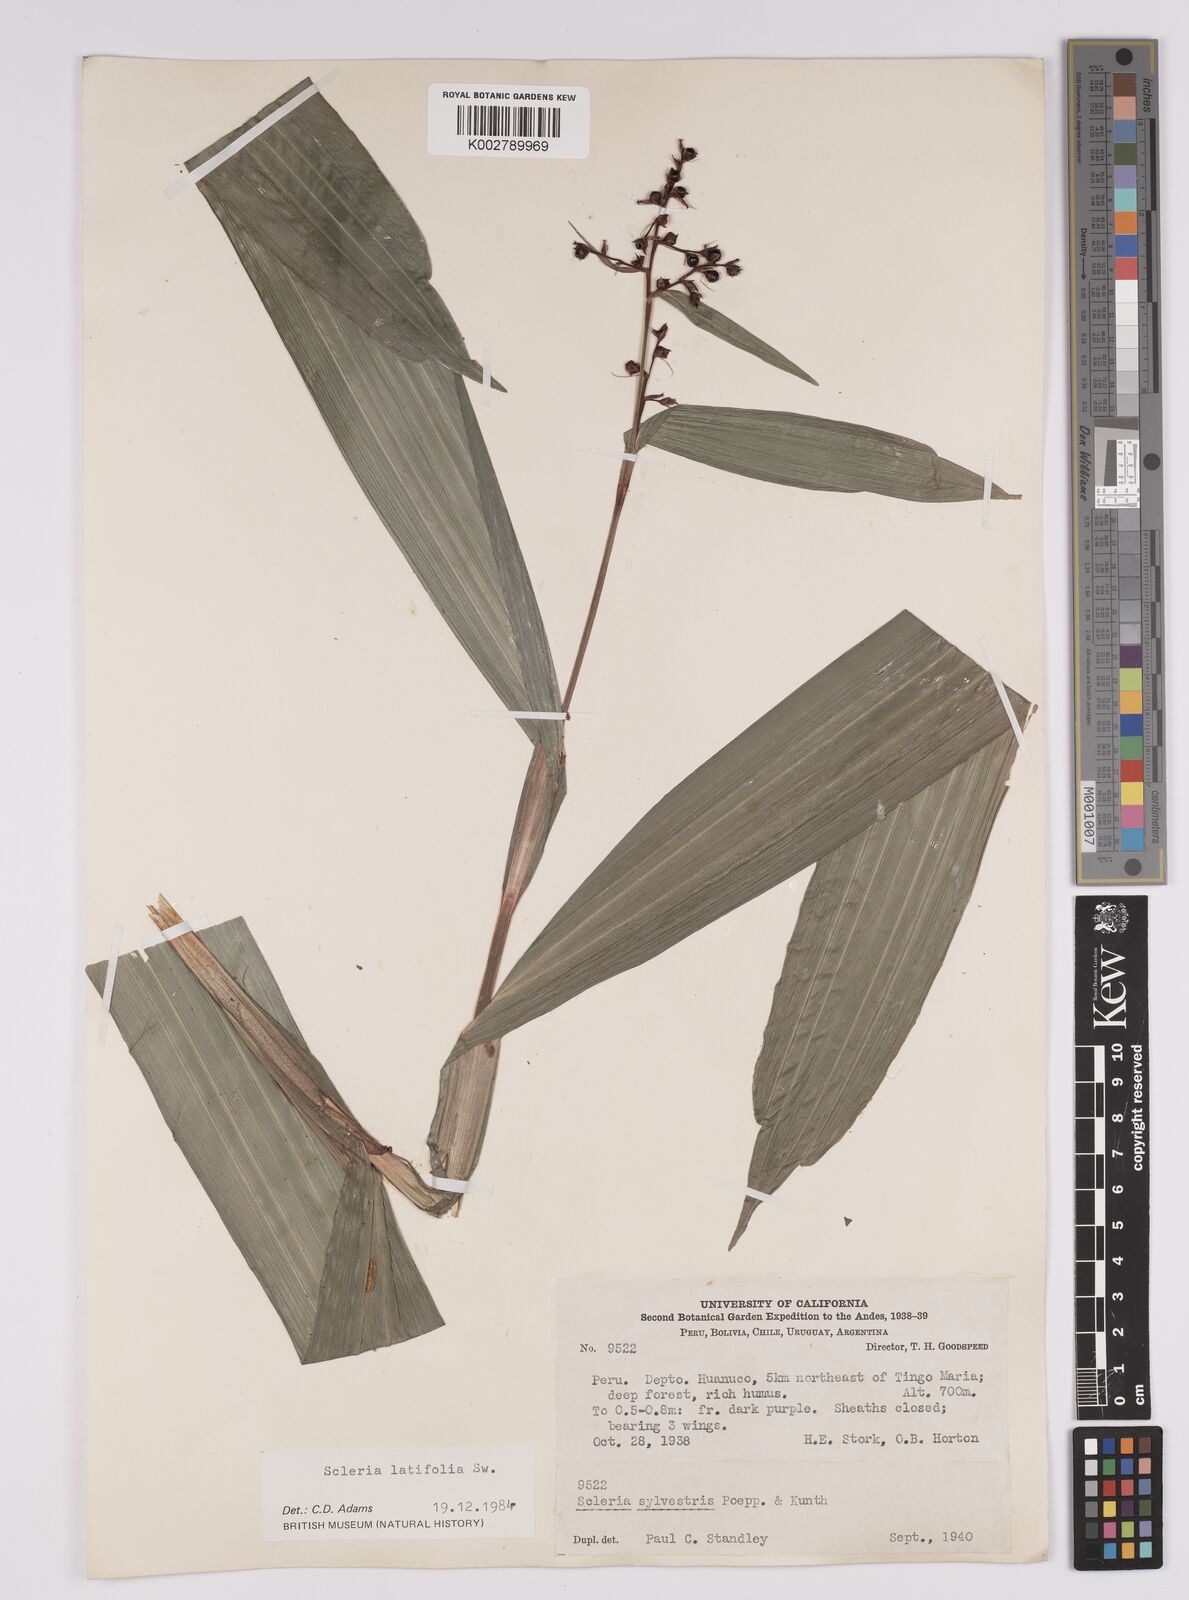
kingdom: Plantae
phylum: Tracheophyta
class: Liliopsida
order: Poales
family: Cyperaceae
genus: Scleria
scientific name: Scleria latifolia
